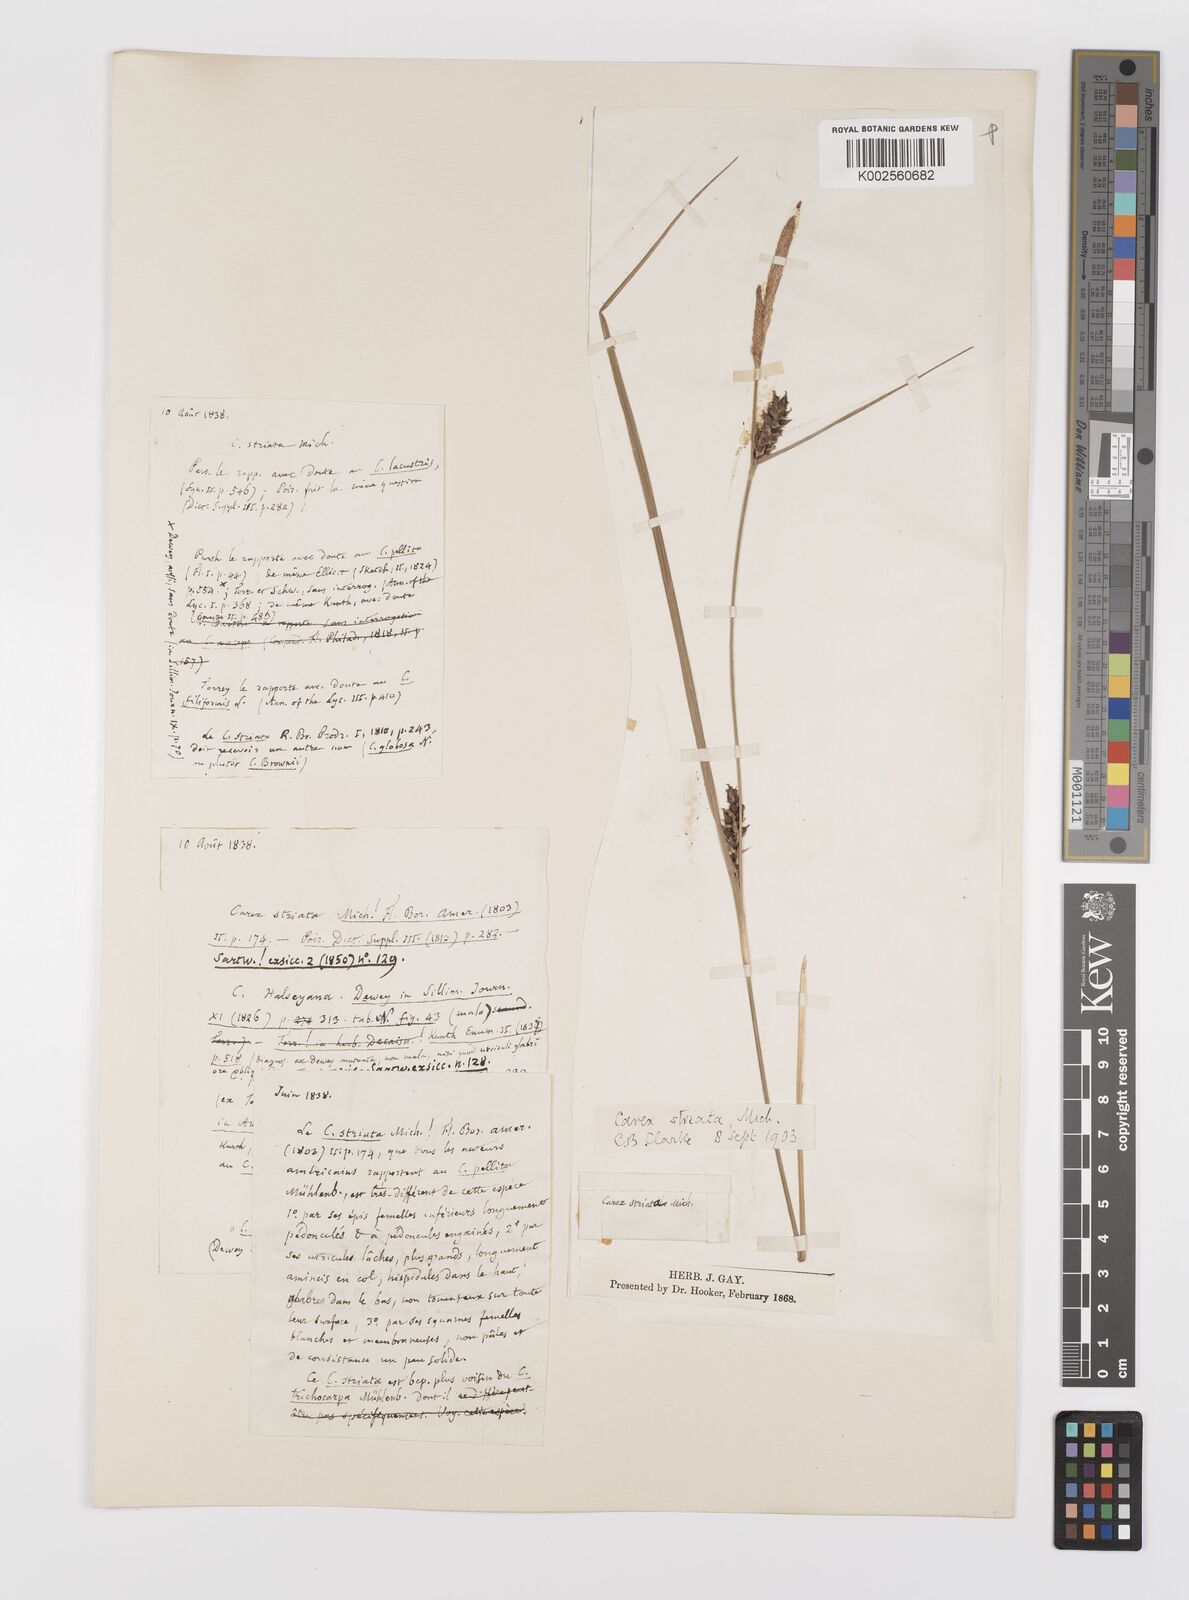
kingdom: Plantae
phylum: Tracheophyta
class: Liliopsida
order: Poales
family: Cyperaceae
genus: Carex
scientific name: Carex striata
